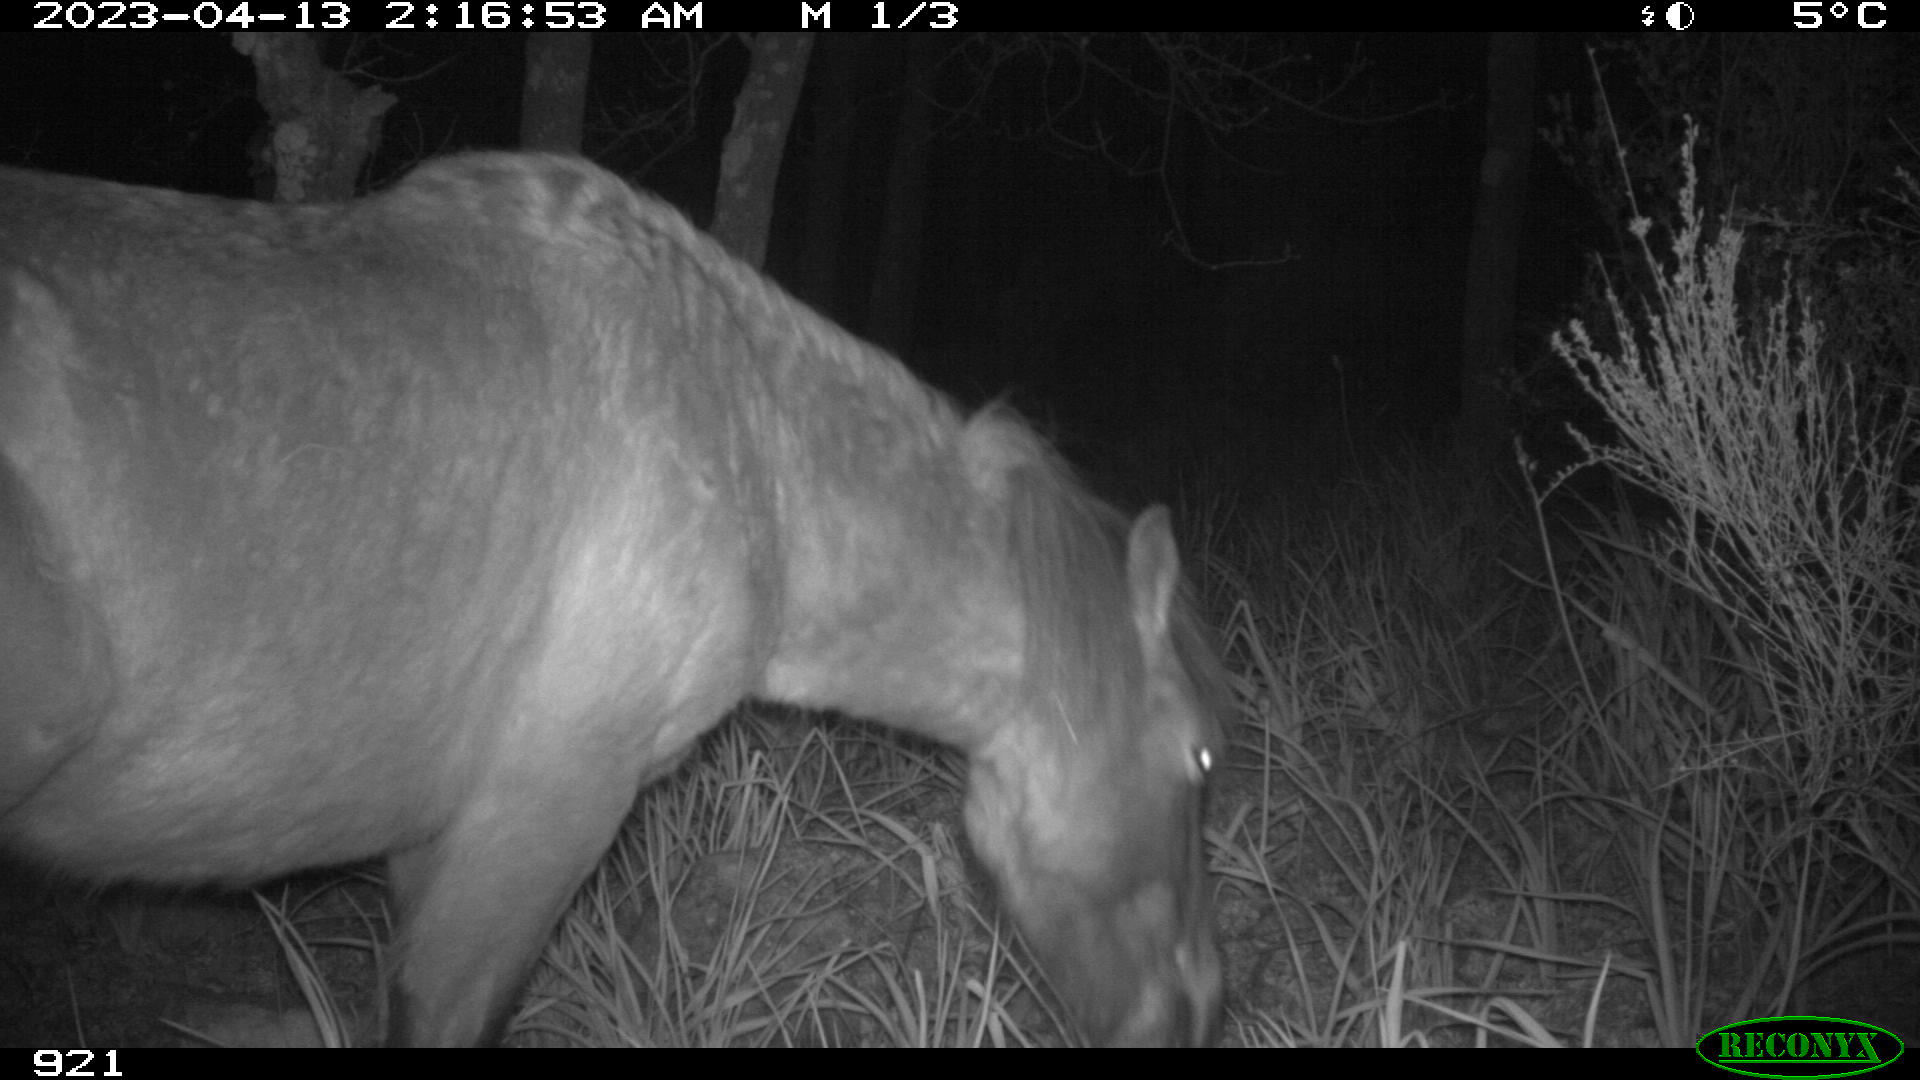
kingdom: Animalia
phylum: Chordata
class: Mammalia
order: Perissodactyla
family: Equidae
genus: Equus
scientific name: Equus caballus
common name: Horse
